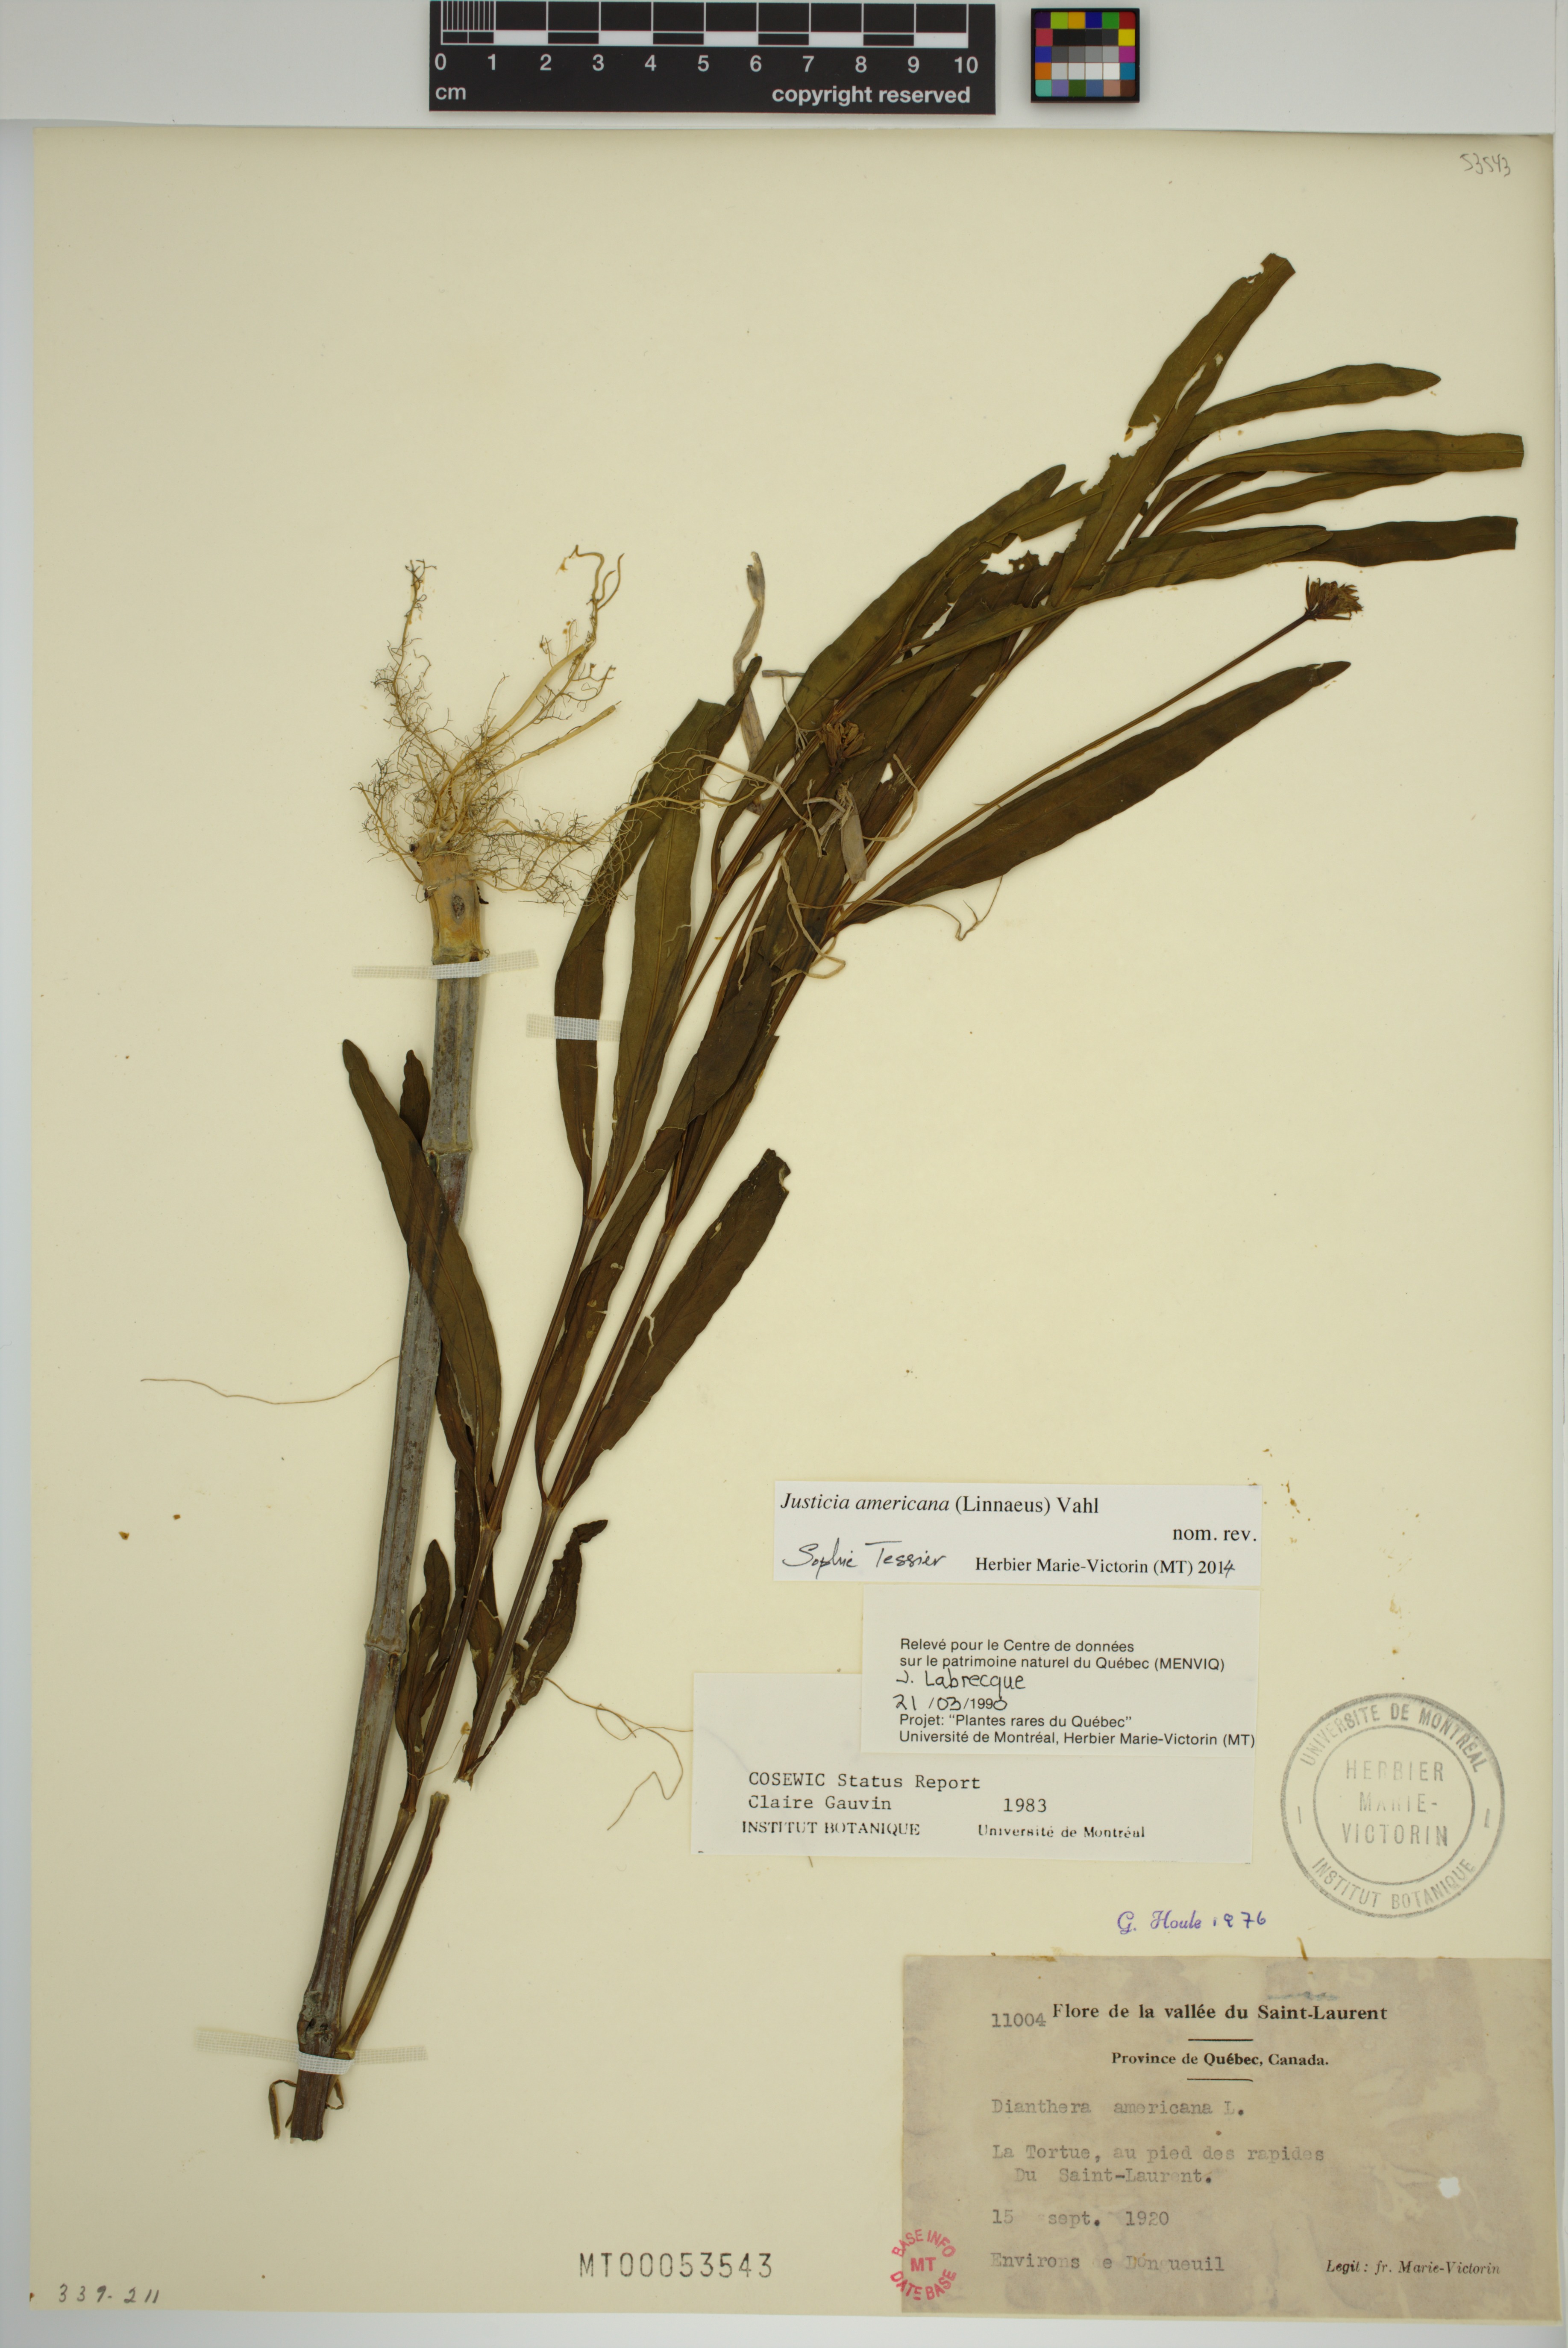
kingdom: Plantae
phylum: Tracheophyta
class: Magnoliopsida
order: Lamiales
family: Acanthaceae
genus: Dianthera
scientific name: Dianthera americana
